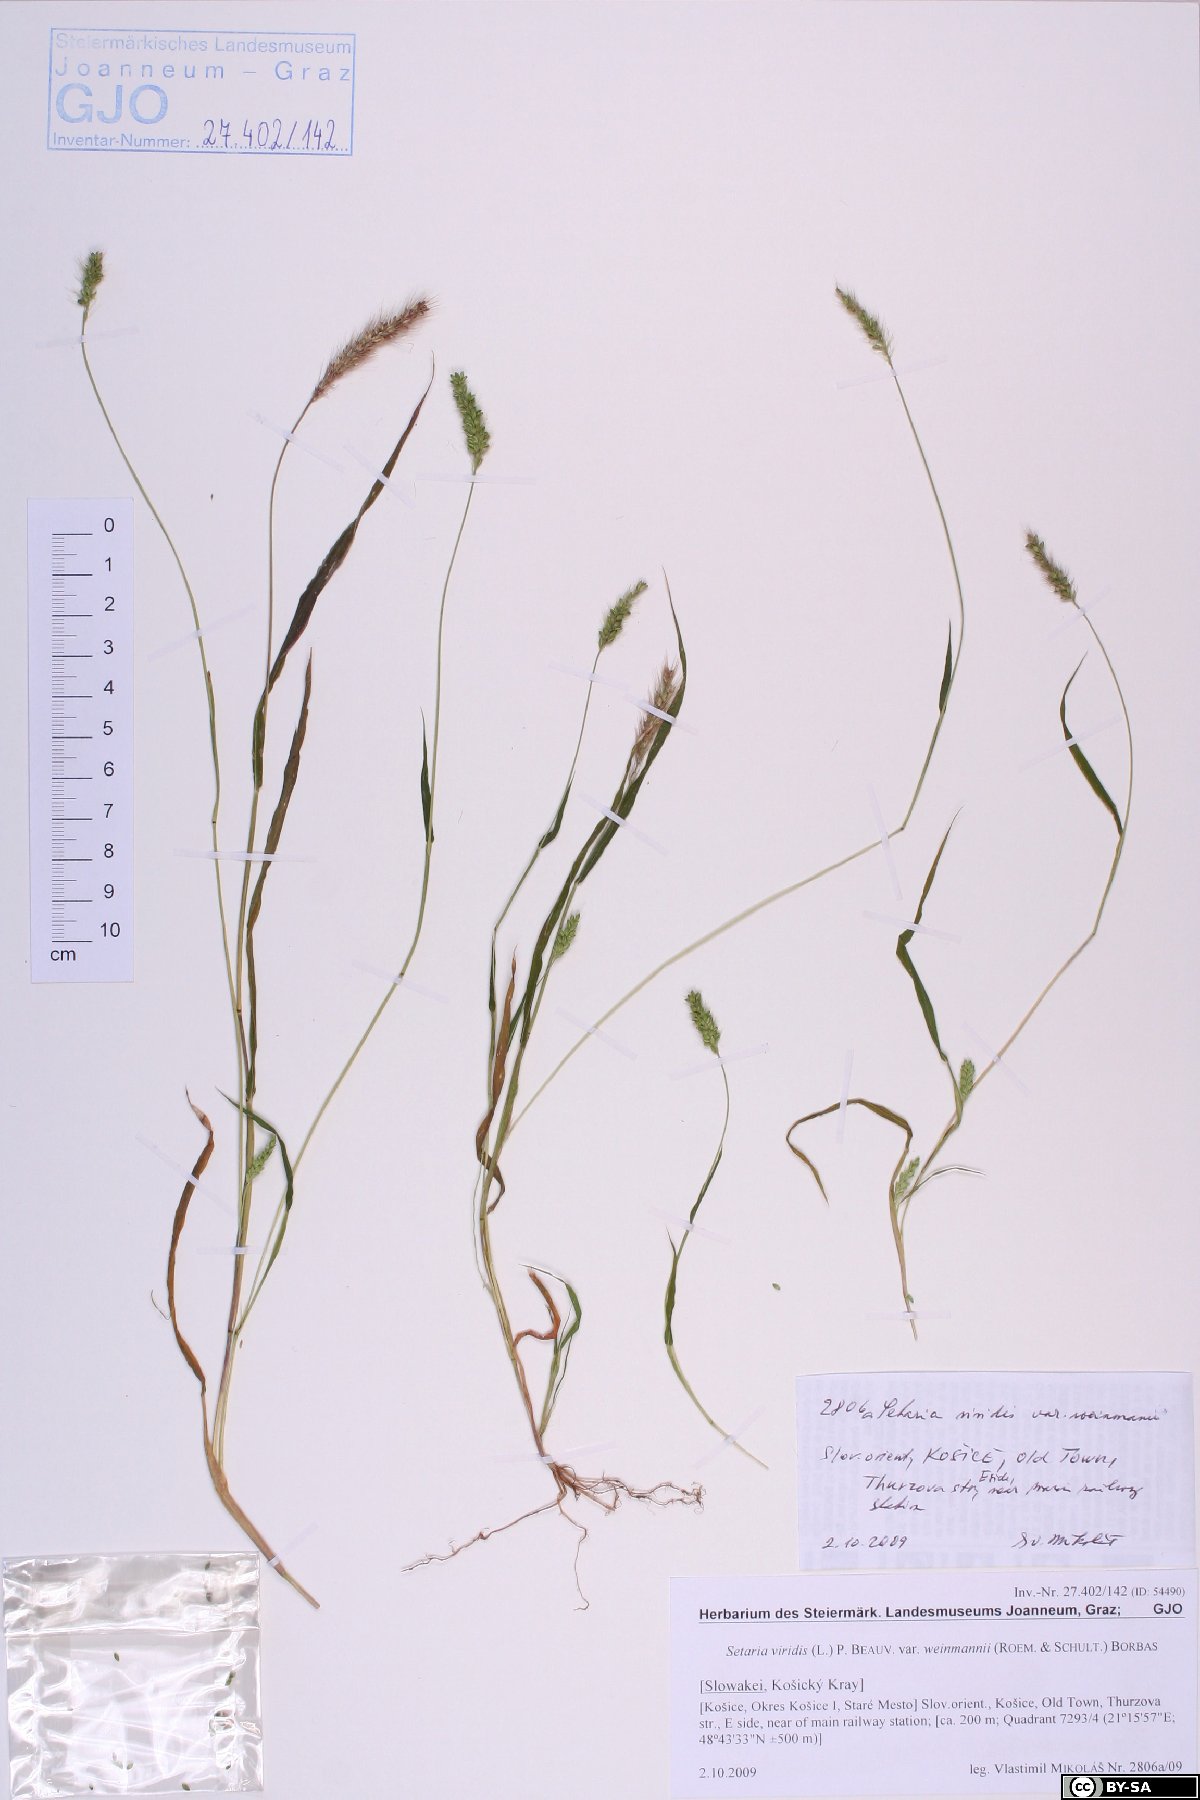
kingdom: Plantae
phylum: Tracheophyta
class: Liliopsida
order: Poales
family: Poaceae
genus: Setaria
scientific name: Setaria viridis
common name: Green bristlegrass
